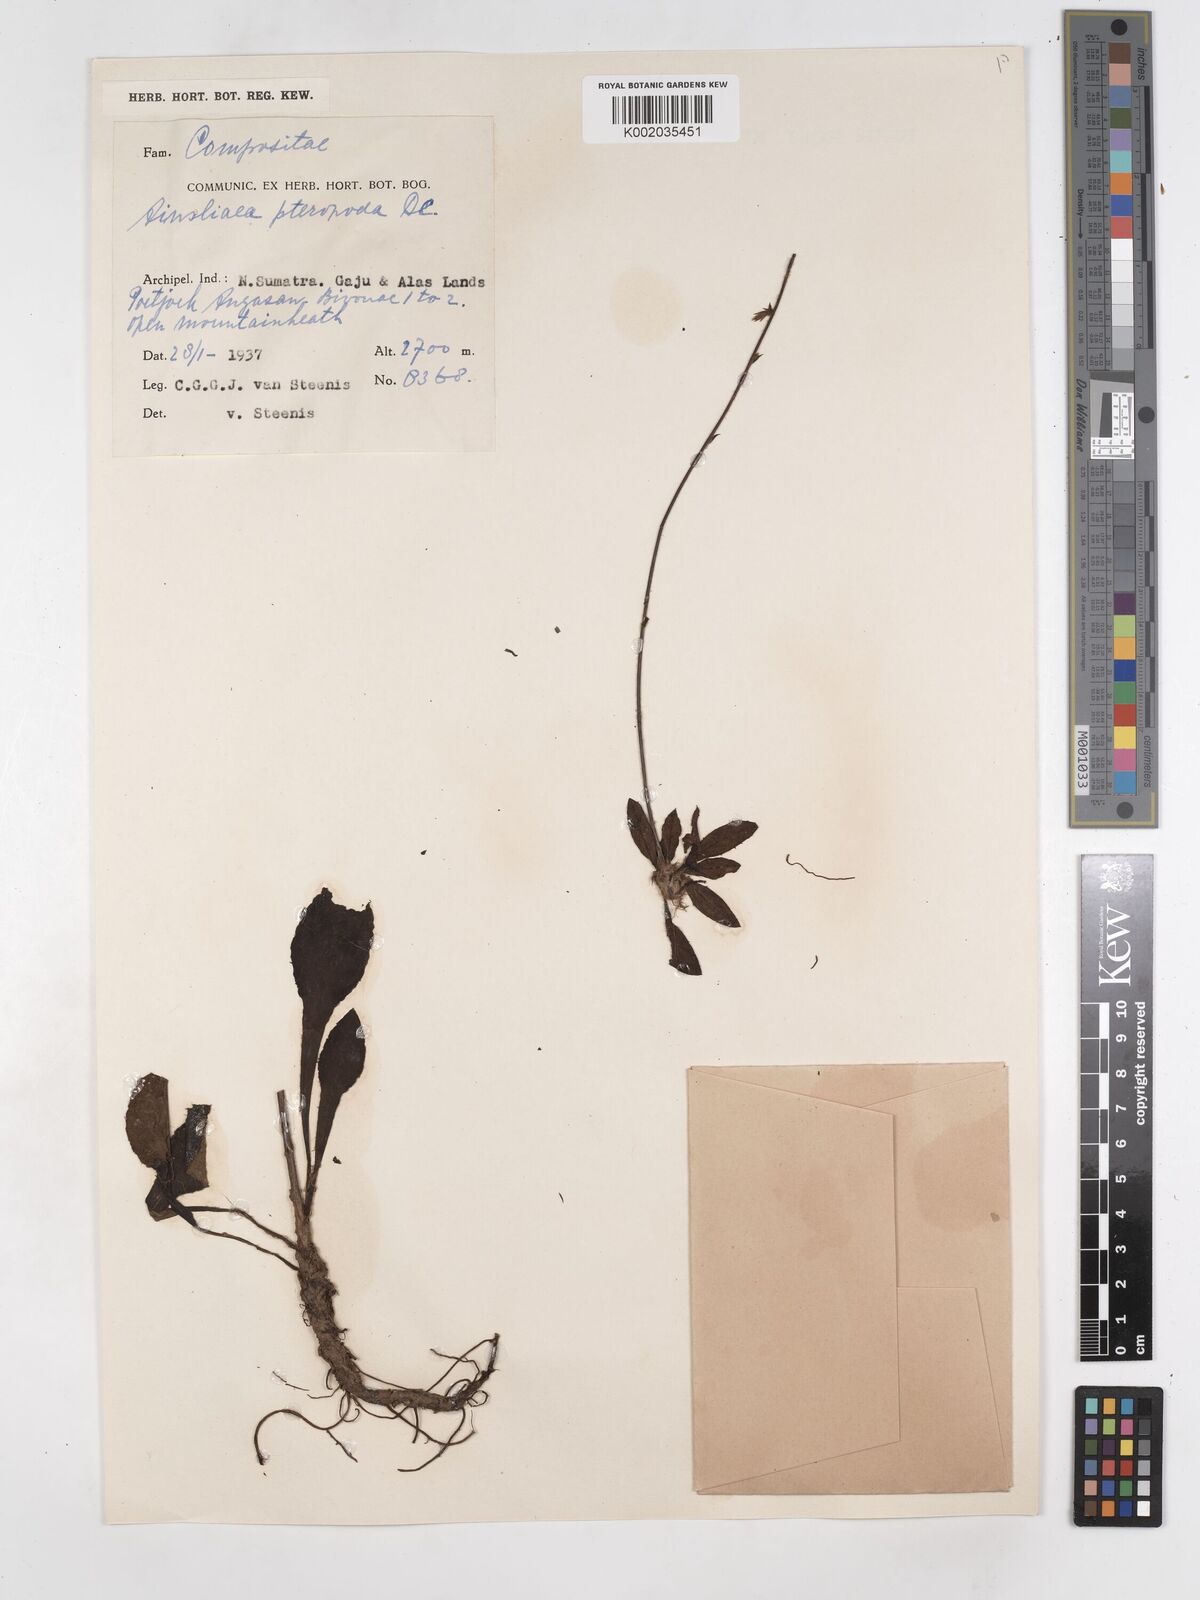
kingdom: Plantae
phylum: Tracheophyta
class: Magnoliopsida
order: Asterales
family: Asteraceae
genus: Ainsliaea
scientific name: Ainsliaea latifolia
